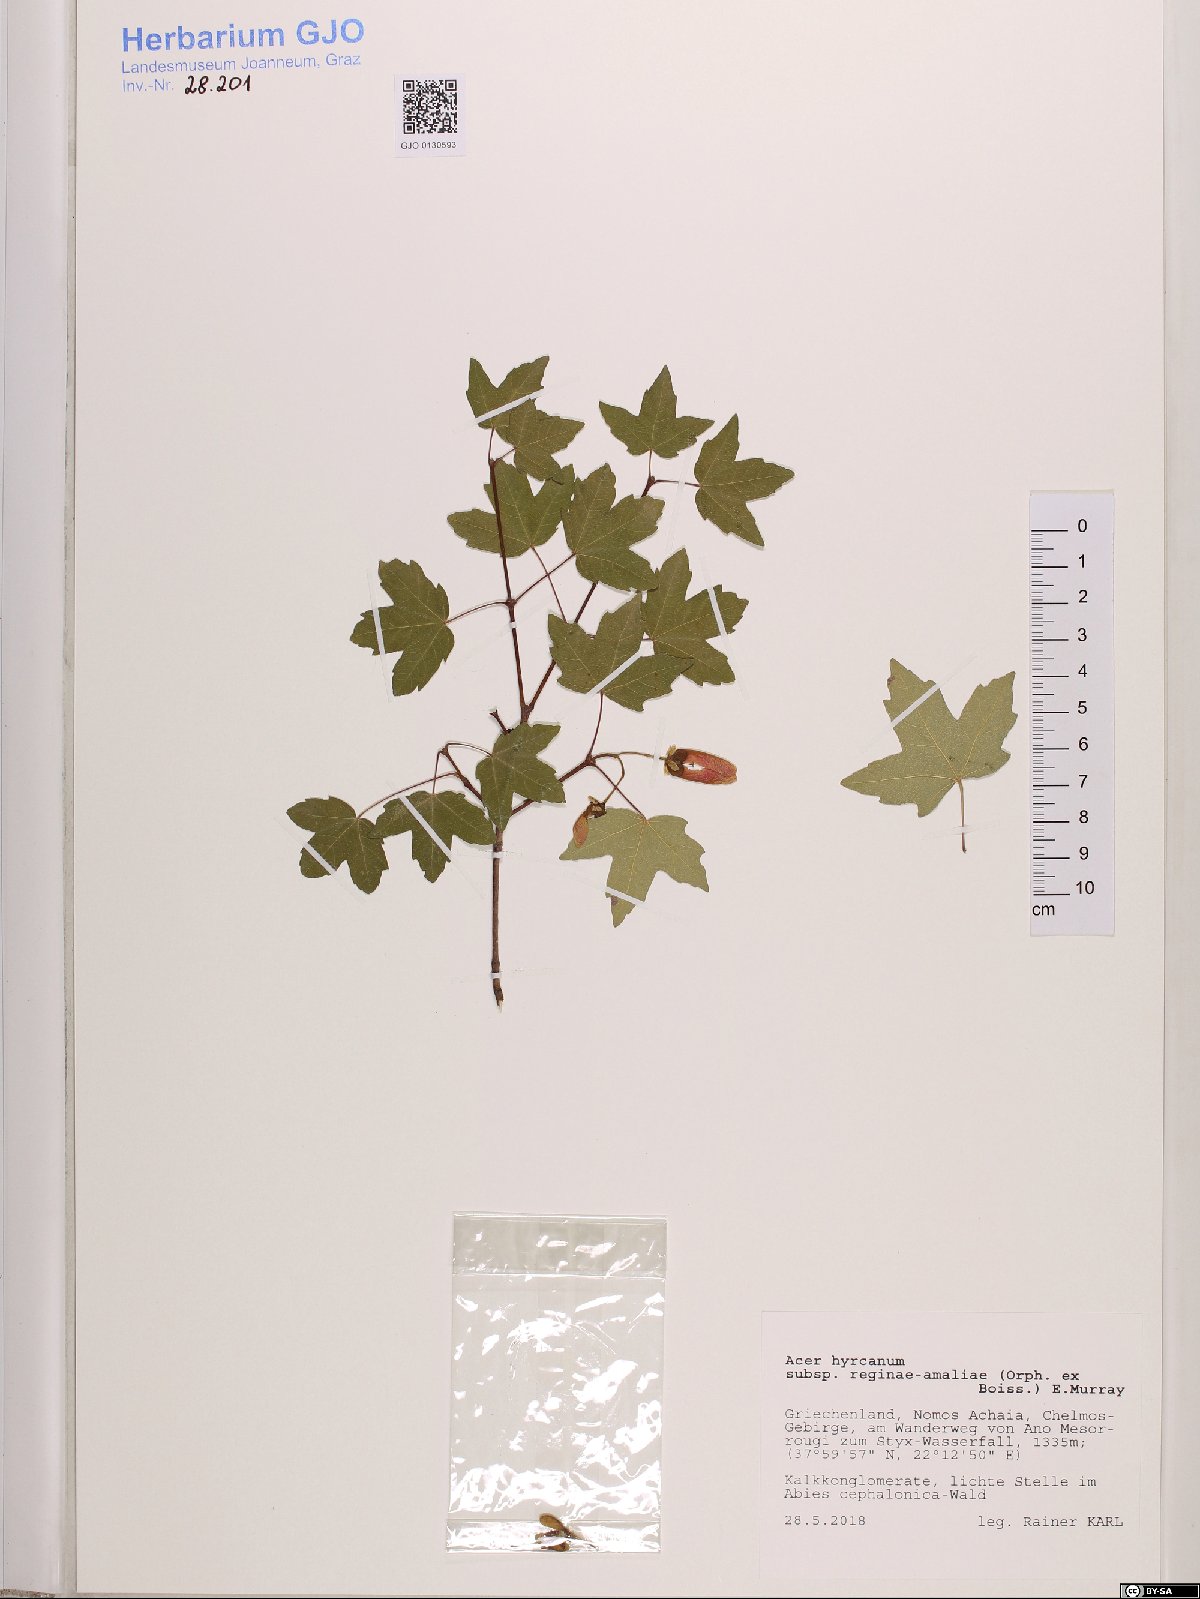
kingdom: Plantae
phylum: Tracheophyta
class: Magnoliopsida
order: Sapindales
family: Sapindaceae
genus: Acer
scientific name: Acer hyrcanum
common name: Balkan maple
